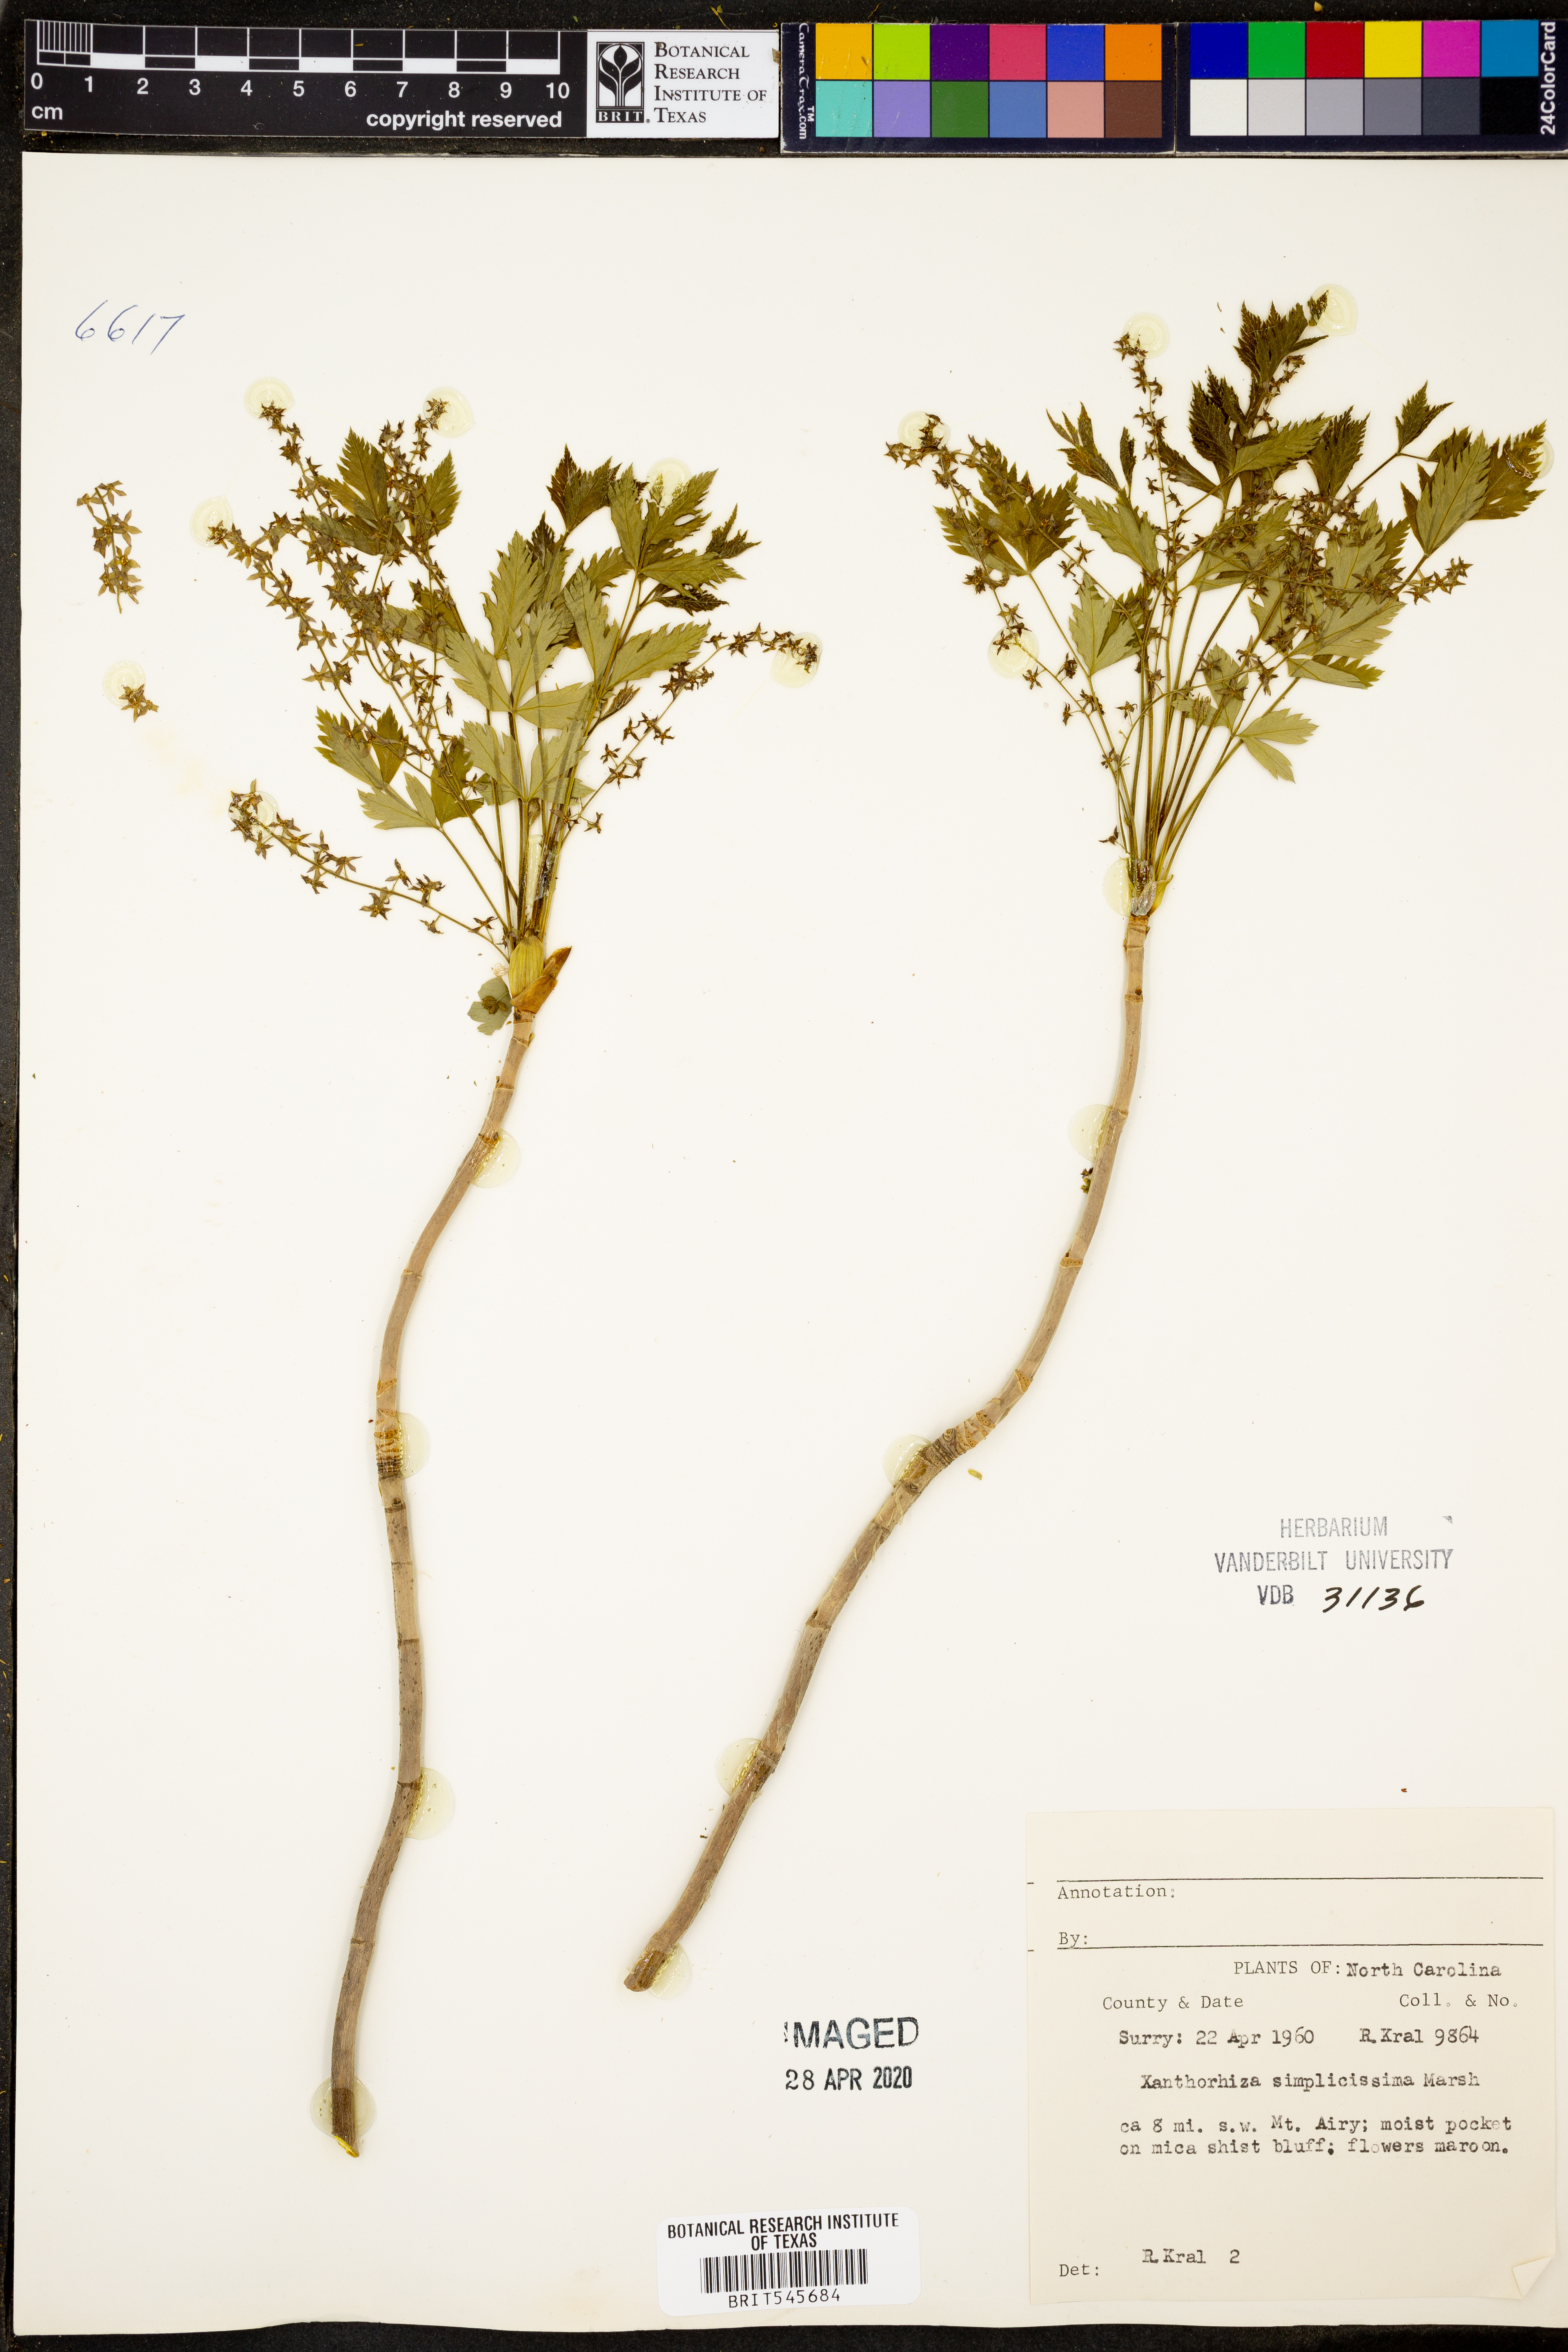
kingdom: Plantae
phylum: Tracheophyta
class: Magnoliopsida
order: Ranunculales
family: Ranunculaceae
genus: Xanthorhiza
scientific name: Xanthorhiza simplicissima
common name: Yellowroot
